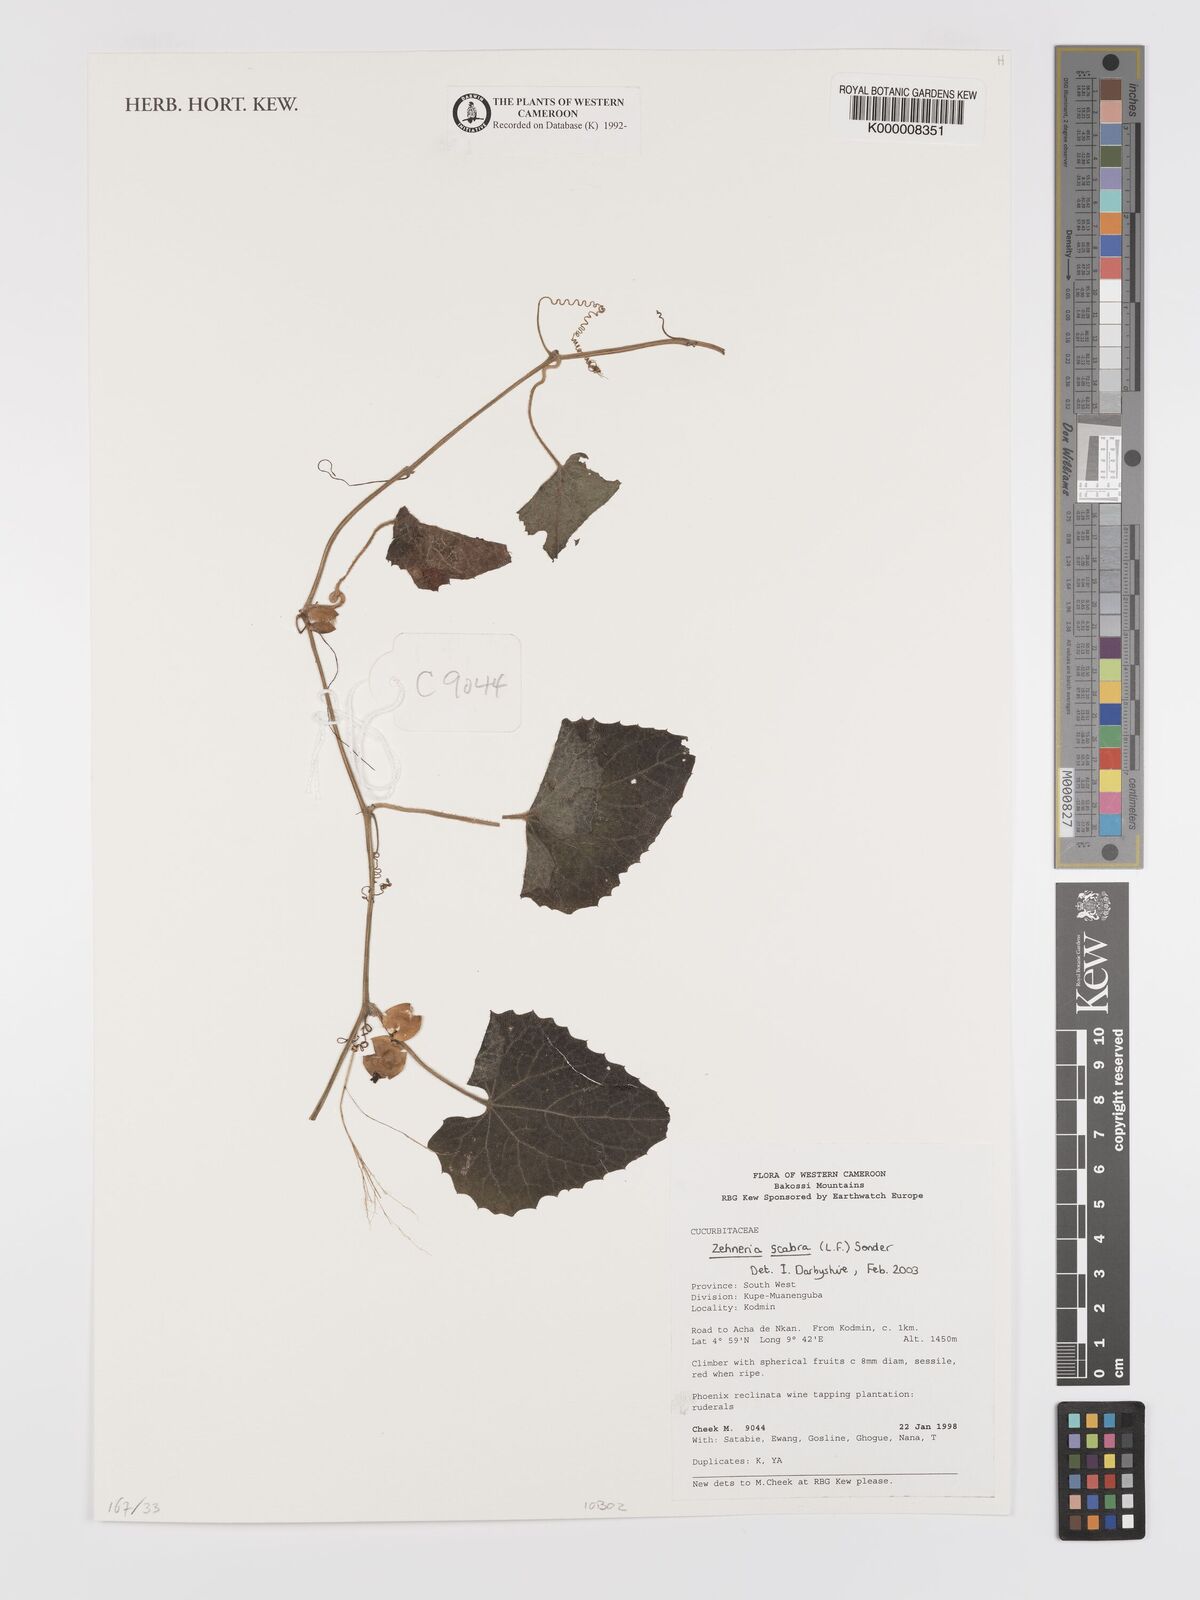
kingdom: Plantae
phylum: Tracheophyta
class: Magnoliopsida
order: Cucurbitales
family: Cucurbitaceae
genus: Zehneria
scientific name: Zehneria scabra
